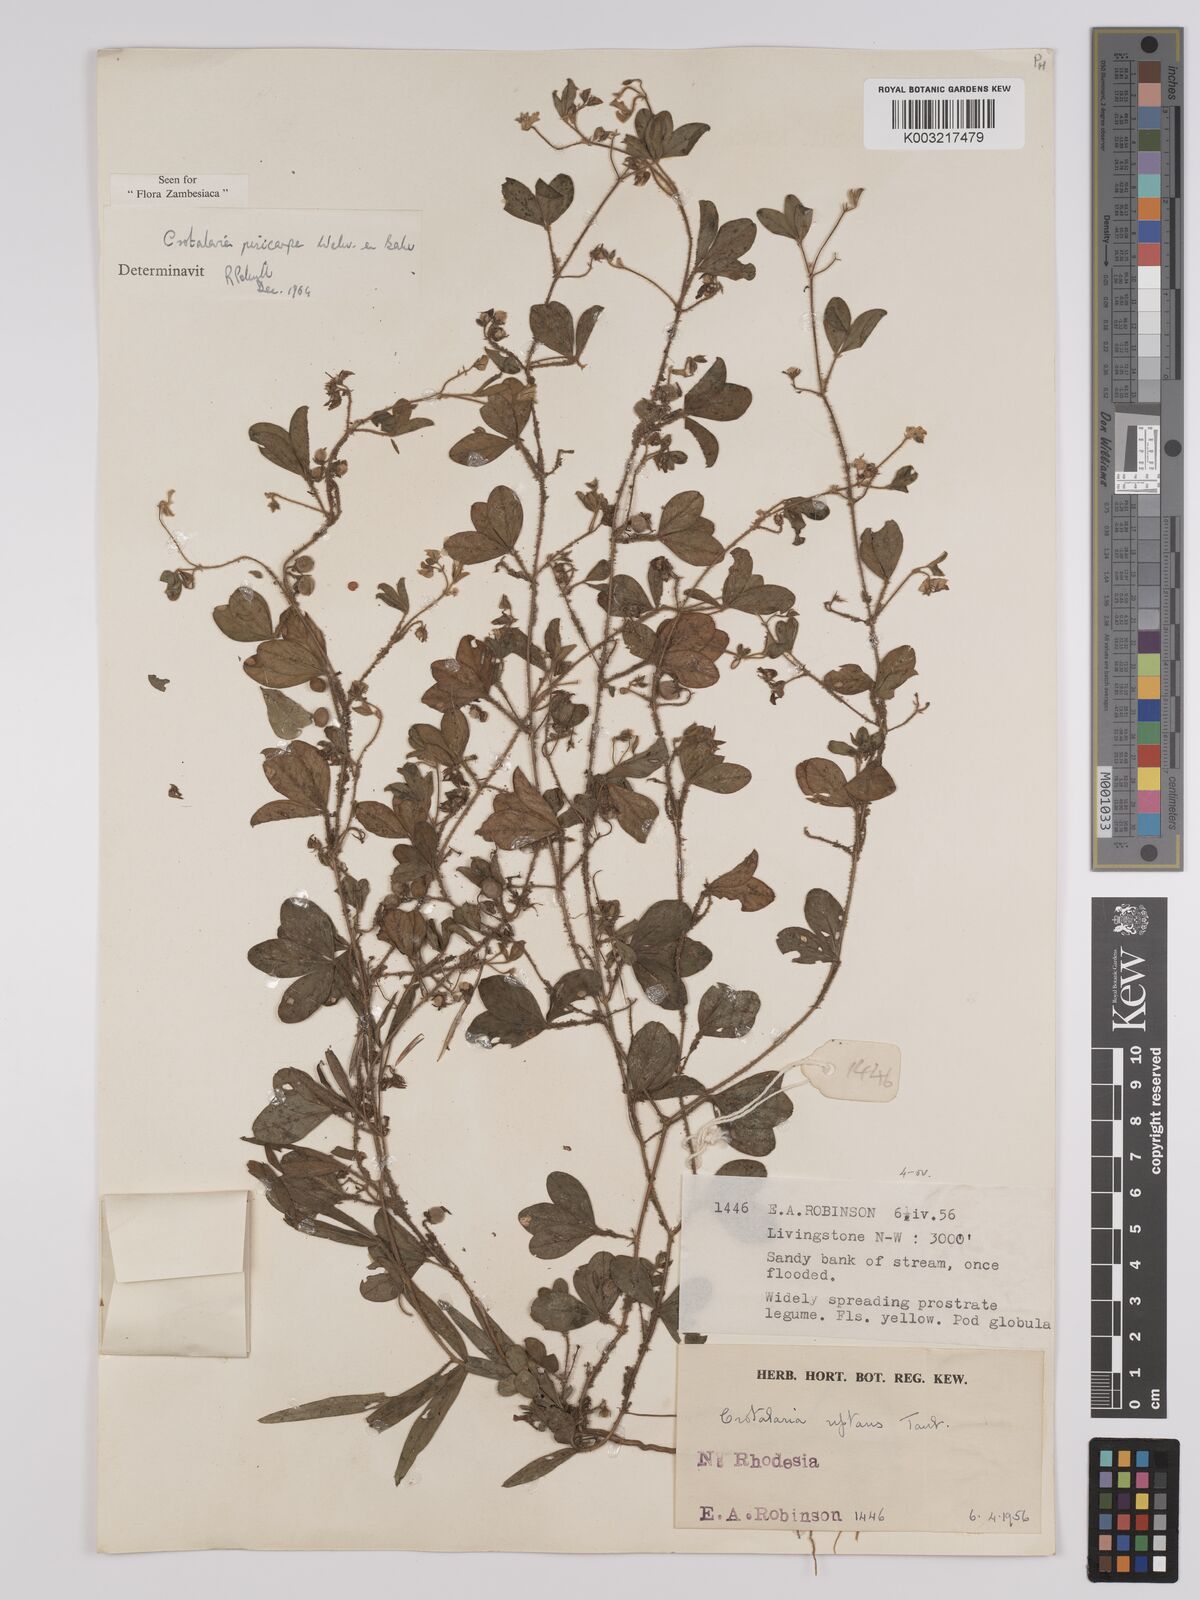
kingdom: Plantae
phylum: Tracheophyta
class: Magnoliopsida
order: Fabales
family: Fabaceae
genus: Crotalaria
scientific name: Crotalaria pisicarpa
